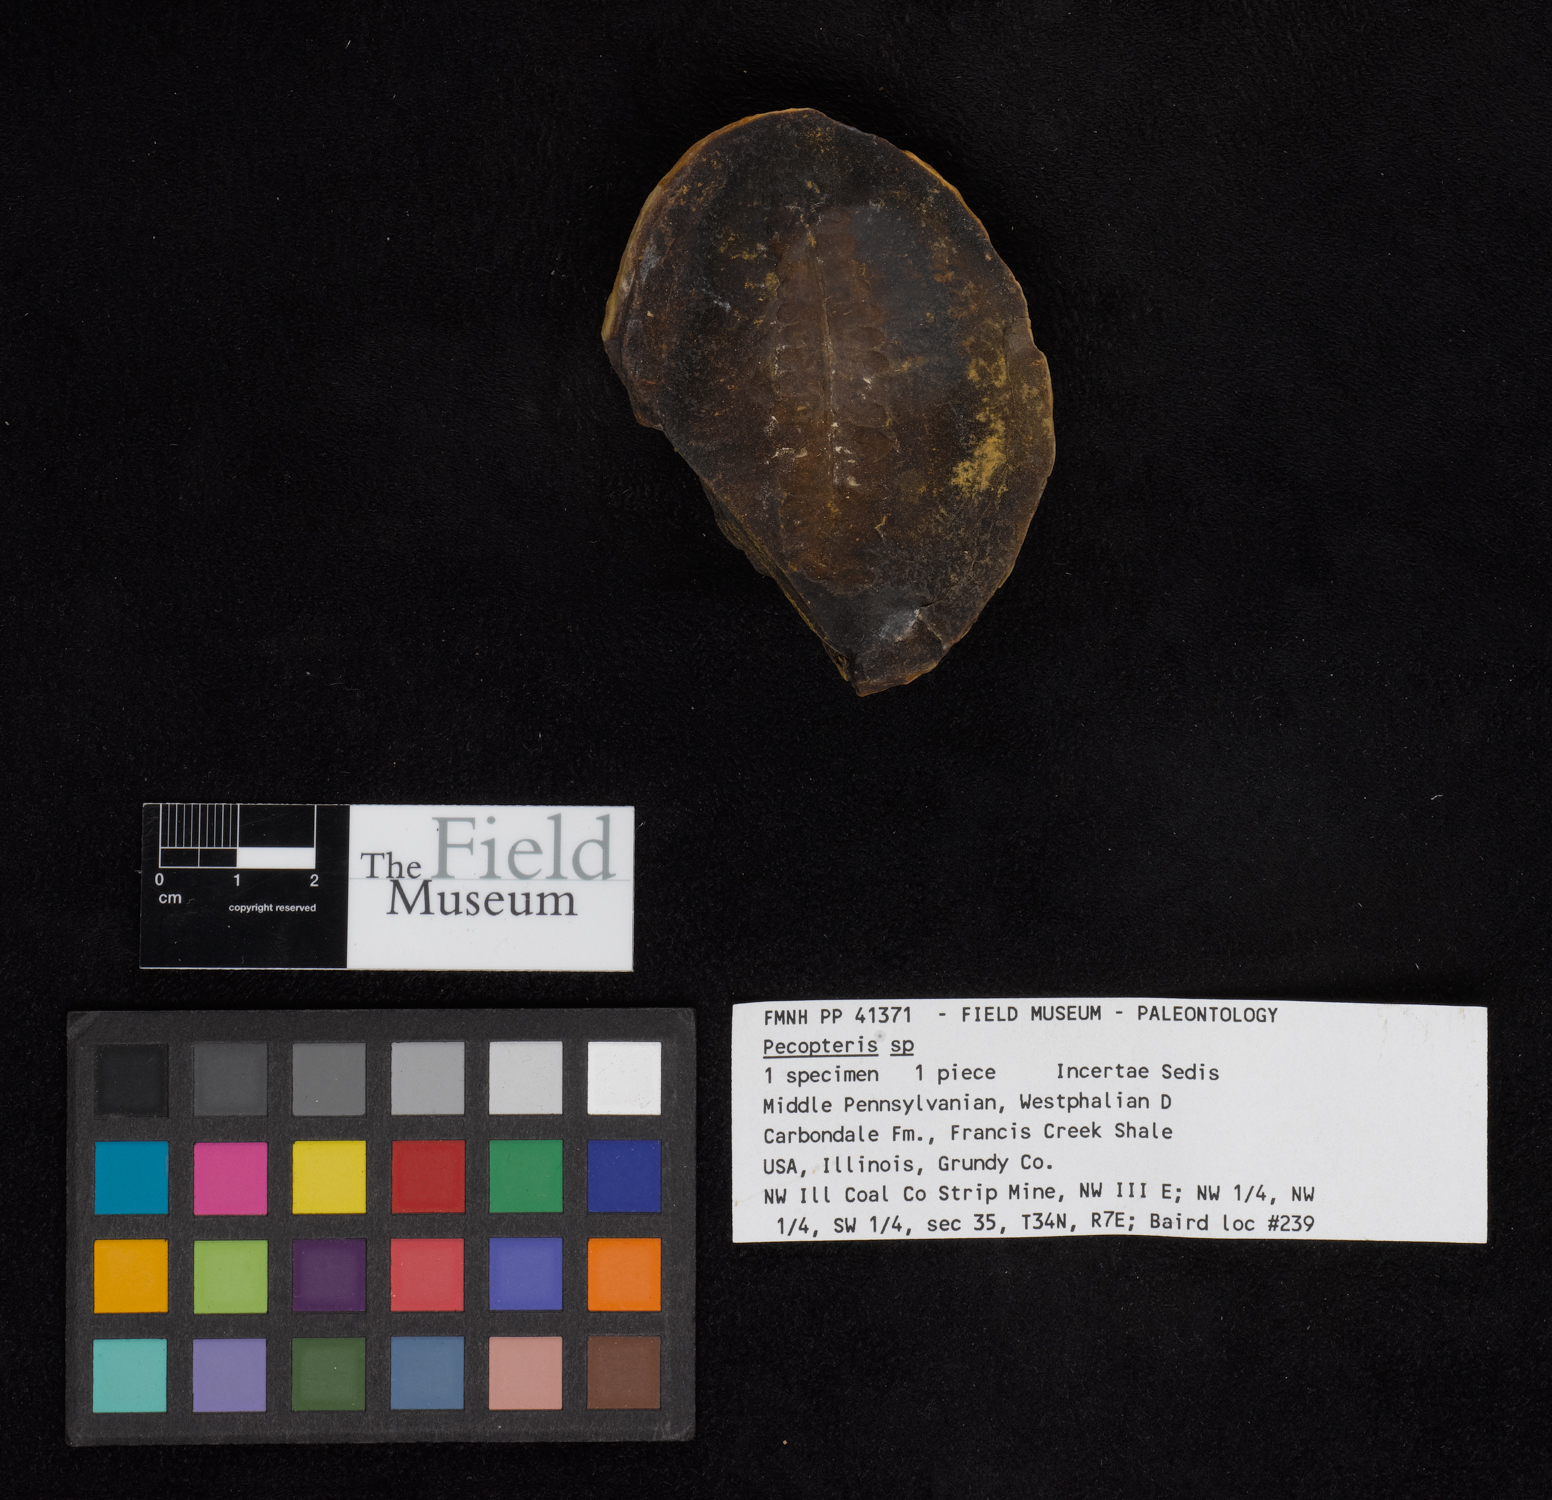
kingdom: Plantae
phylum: Tracheophyta
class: Polypodiopsida
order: Marattiales
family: Asterothecaceae
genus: Pecopteris
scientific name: Pecopteris
